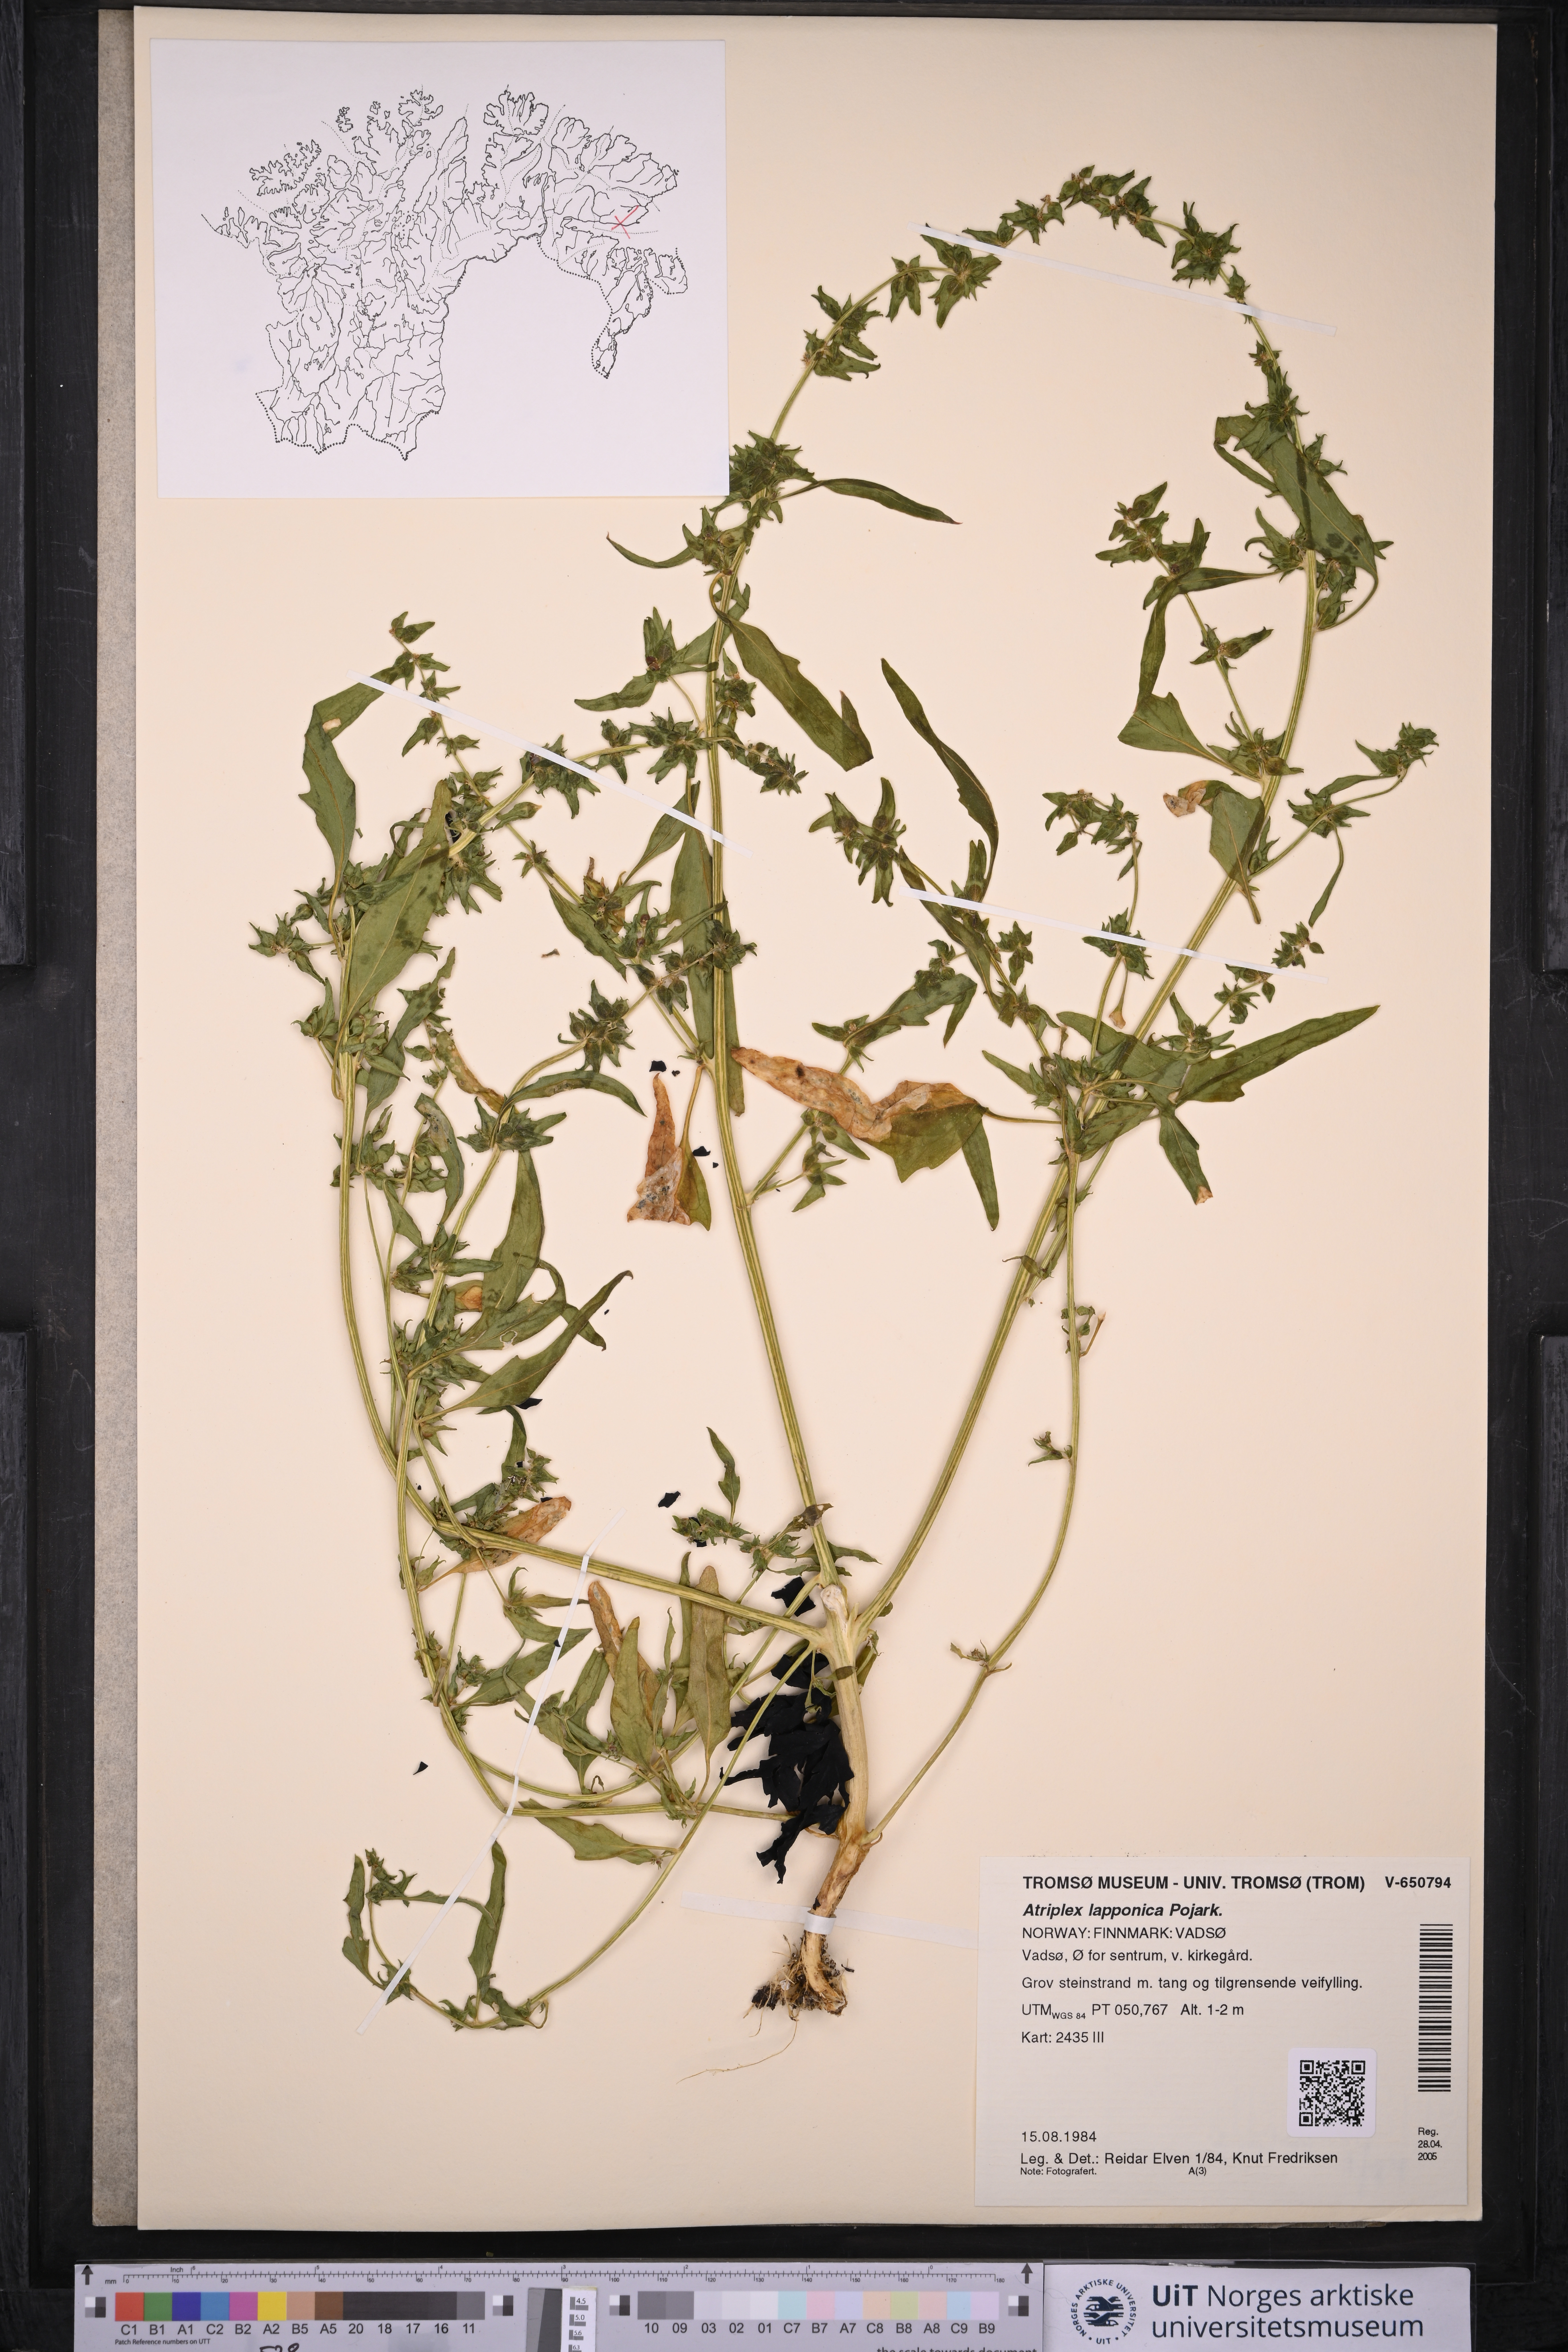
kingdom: Plantae
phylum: Tracheophyta
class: Magnoliopsida
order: Caryophyllales
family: Amaranthaceae
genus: Atriplex
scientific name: Atriplex nudicaulis
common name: Baltic orache
